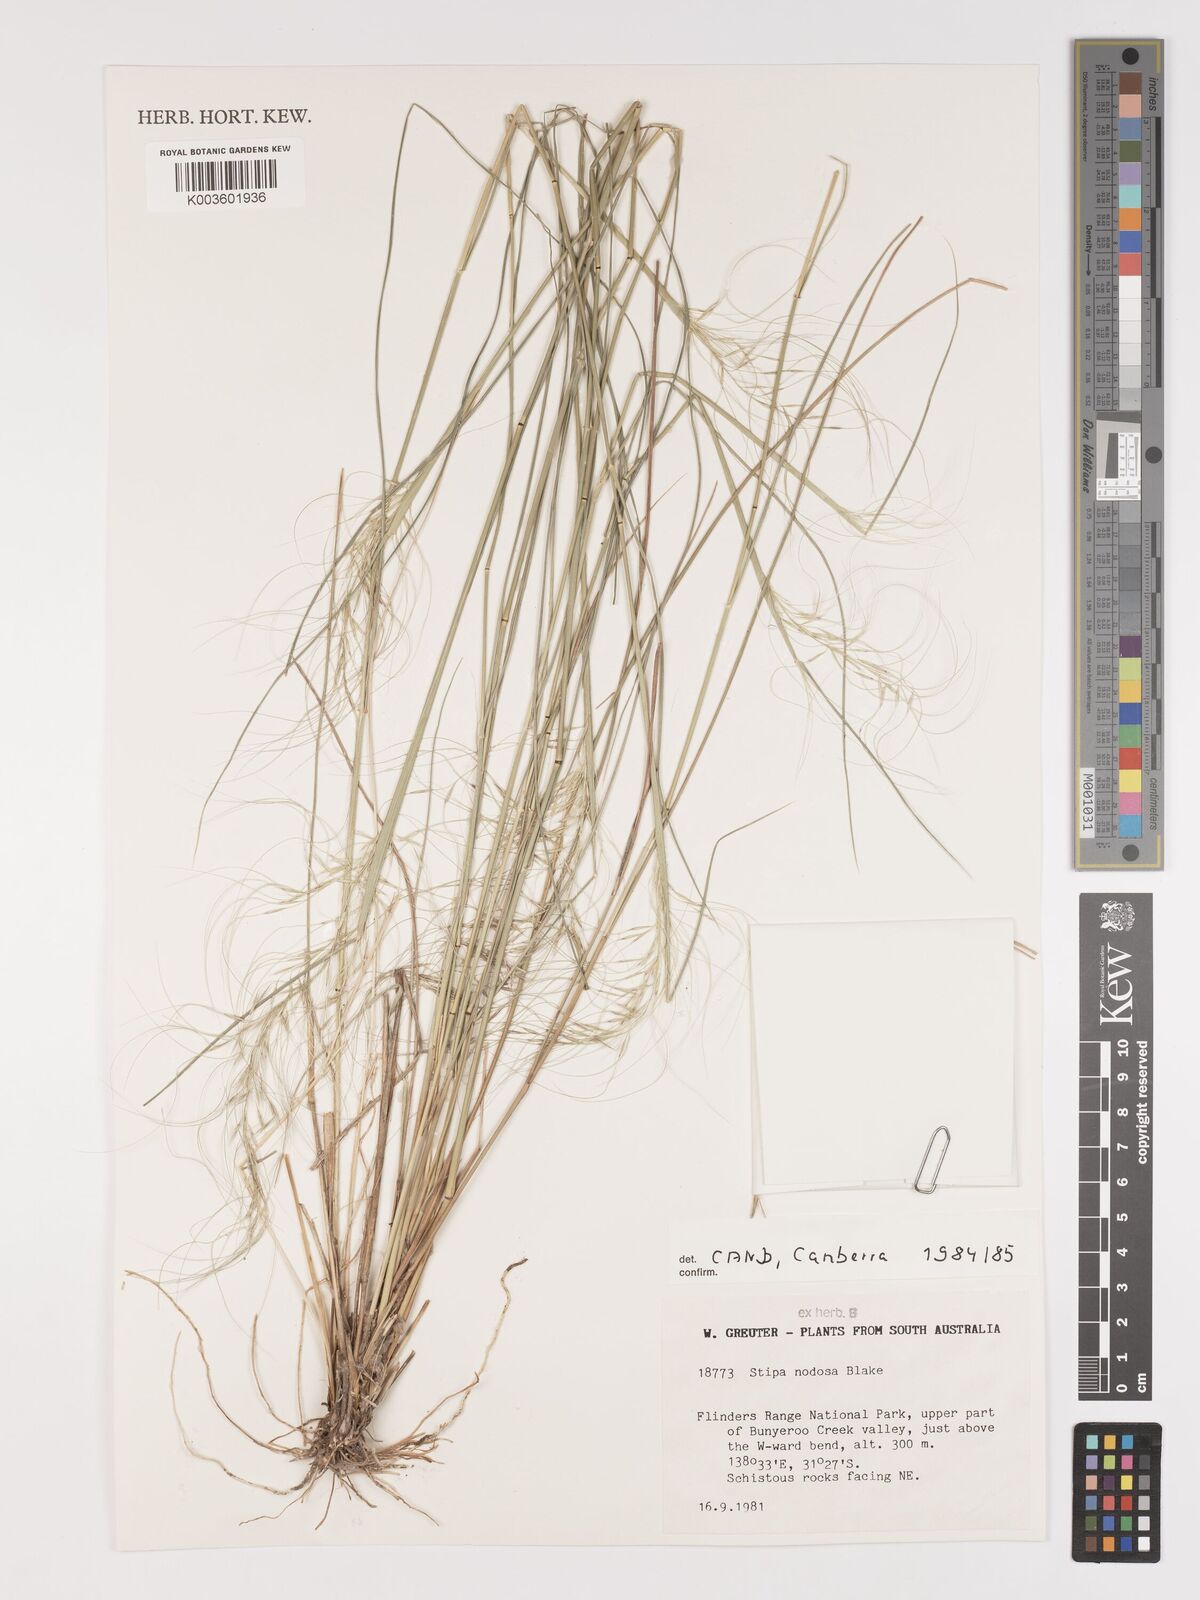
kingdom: Plantae
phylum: Tracheophyta
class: Liliopsida
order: Poales
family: Poaceae
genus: Austrostipa
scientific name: Austrostipa nodosa
